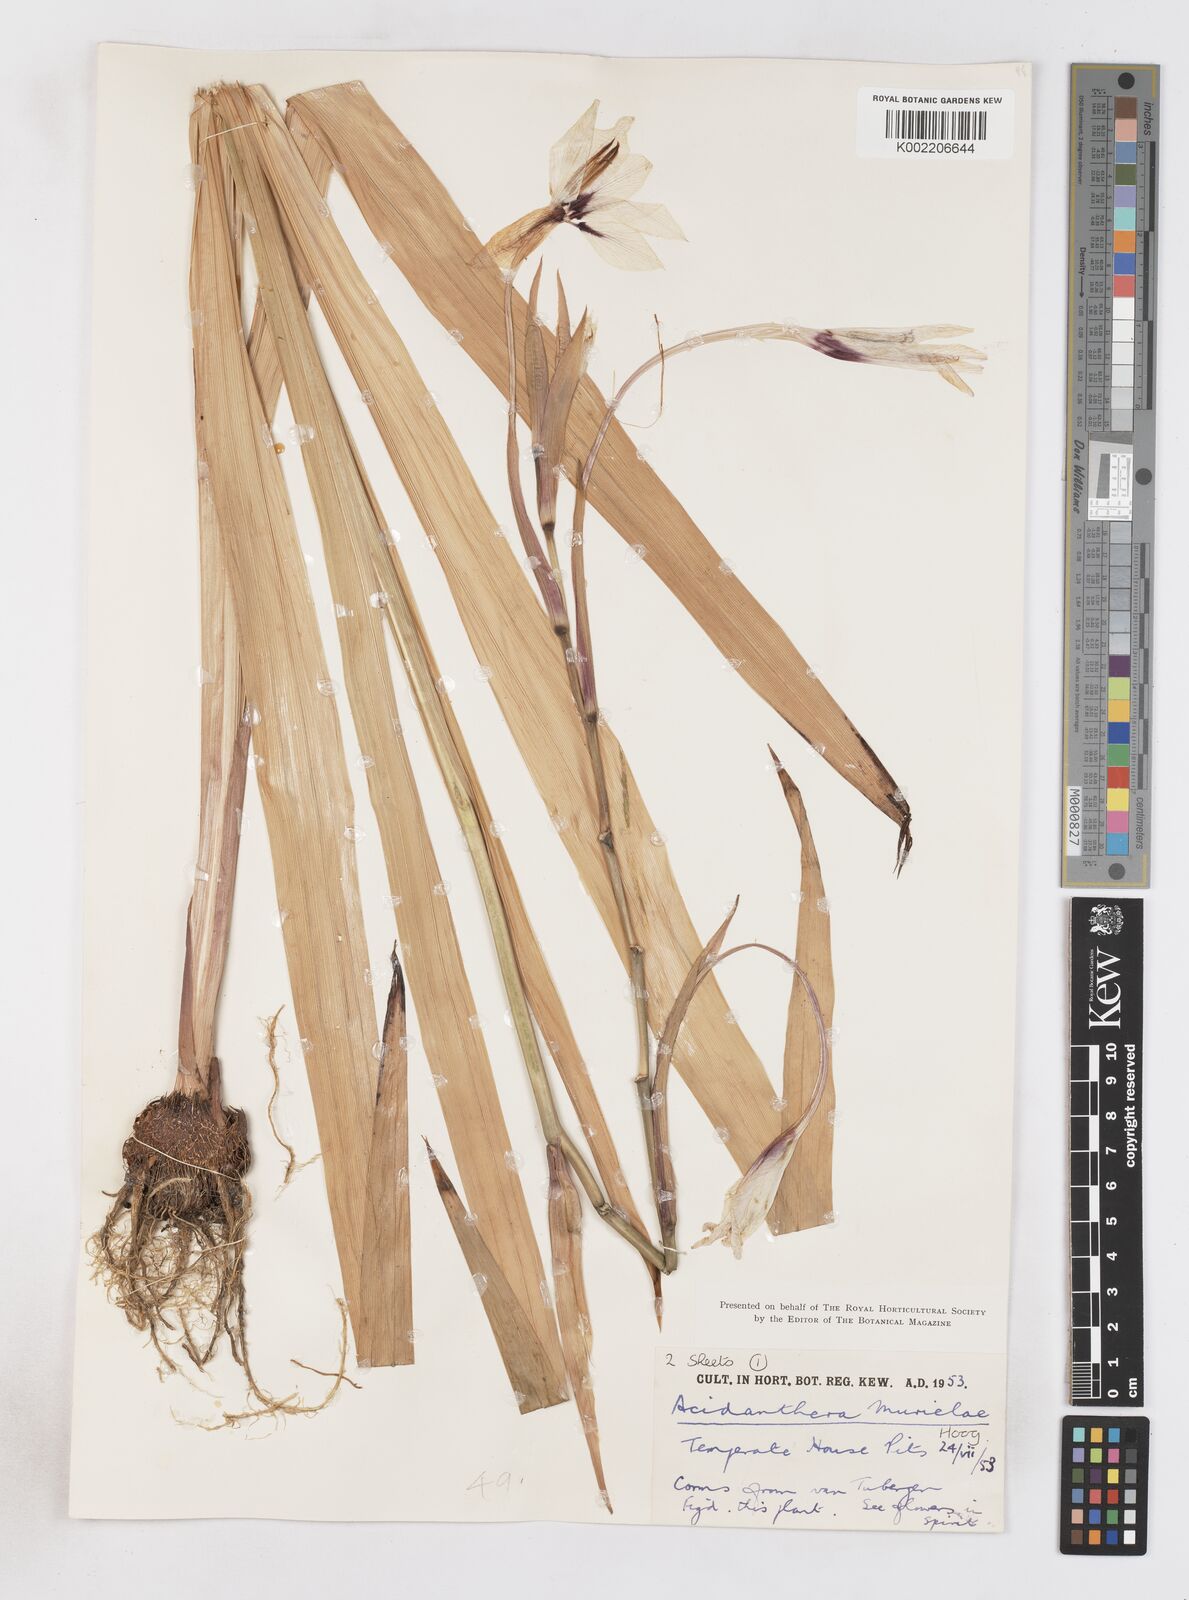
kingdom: Plantae
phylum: Tracheophyta
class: Liliopsida
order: Asparagales
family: Iridaceae
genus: Gladiolus
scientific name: Gladiolus murielae
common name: Acidanthera
